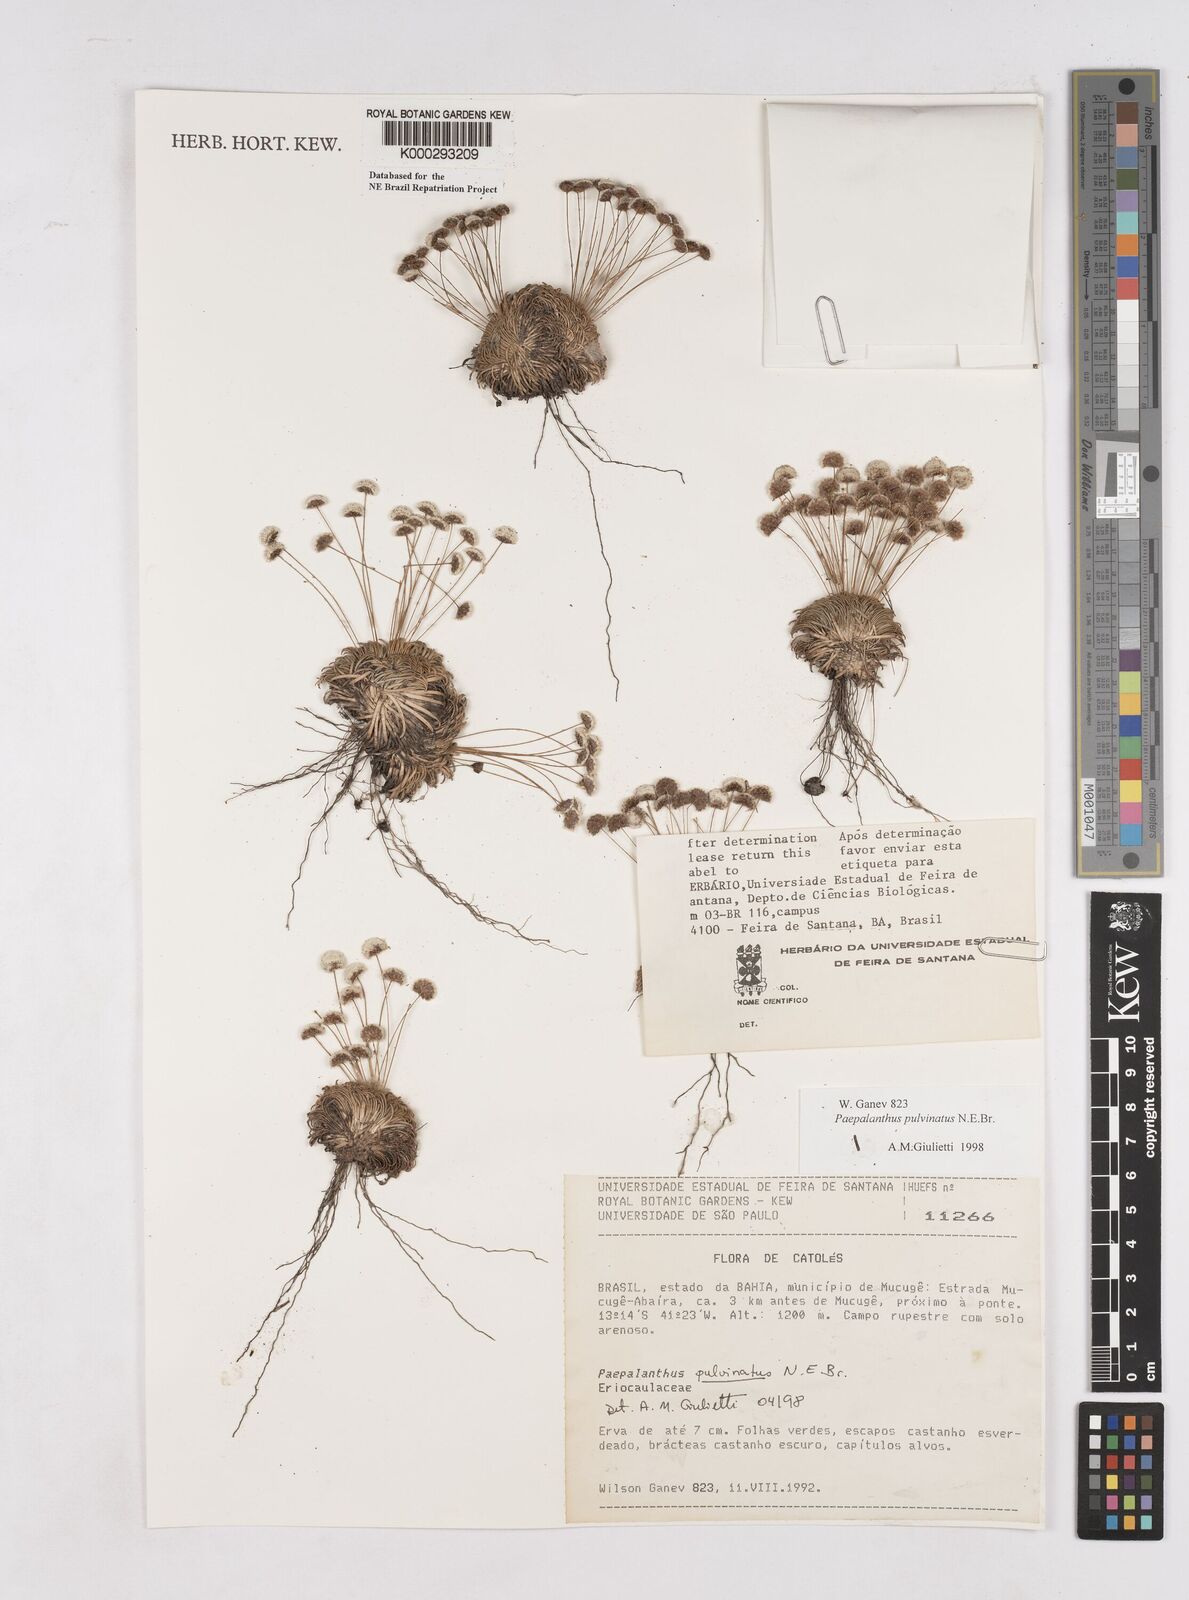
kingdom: Plantae
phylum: Tracheophyta
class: Liliopsida
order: Poales
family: Eriocaulaceae
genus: Paepalanthus
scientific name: Paepalanthus pulvinatus
